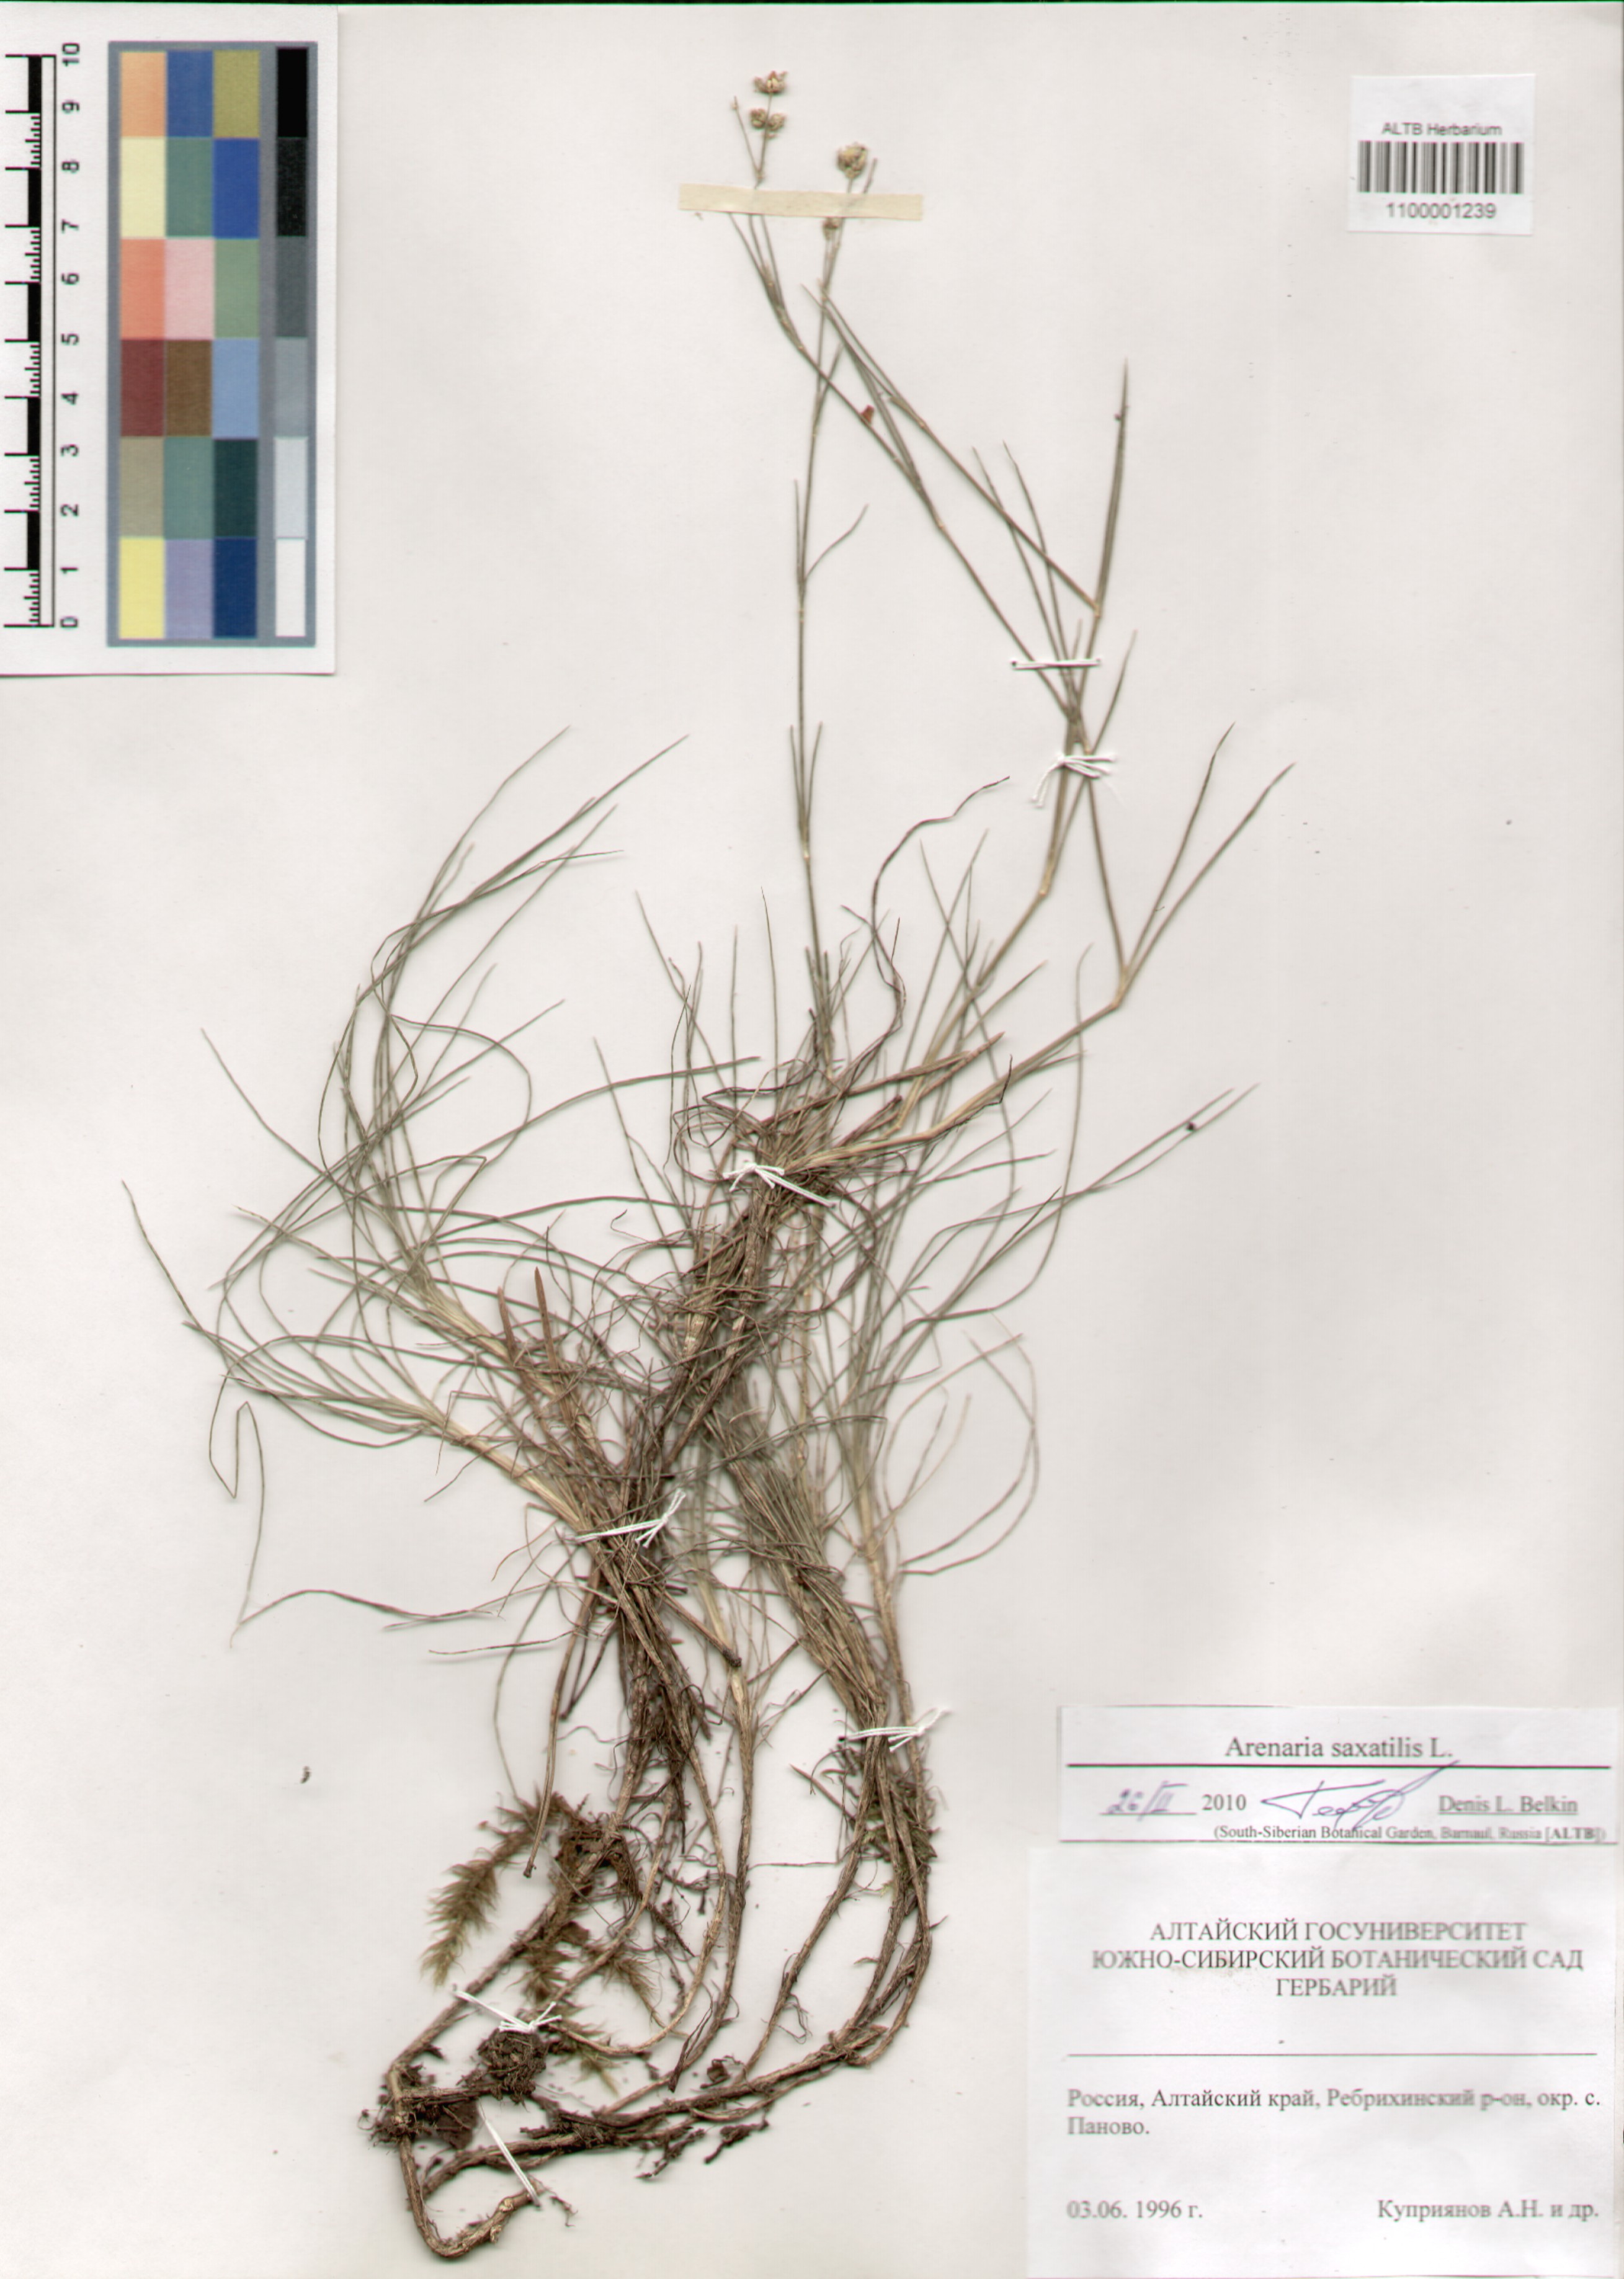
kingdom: Plantae
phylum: Tracheophyta
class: Magnoliopsida
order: Caryophyllales
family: Caryophyllaceae
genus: Eremogone
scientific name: Eremogone saxatilis
